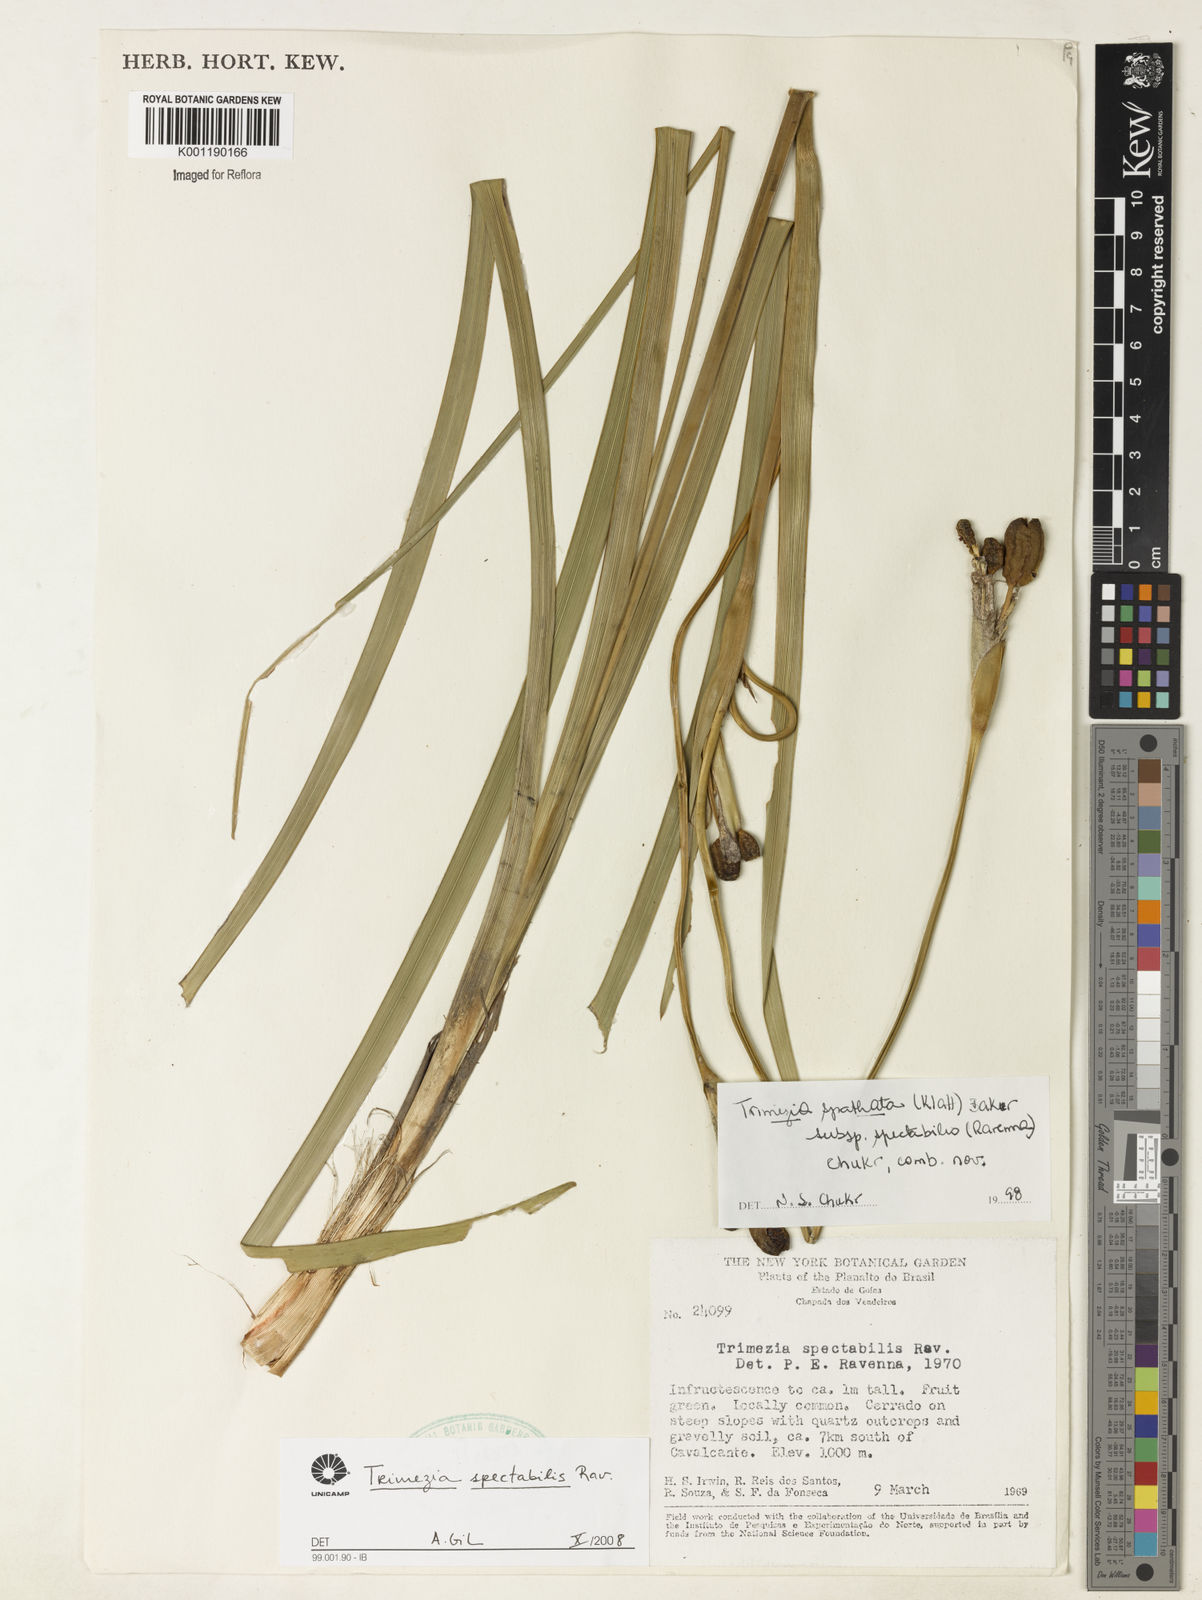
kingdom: Plantae
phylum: Tracheophyta
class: Liliopsida
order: Asparagales
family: Iridaceae
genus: Trimezia
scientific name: Trimezia spathata
